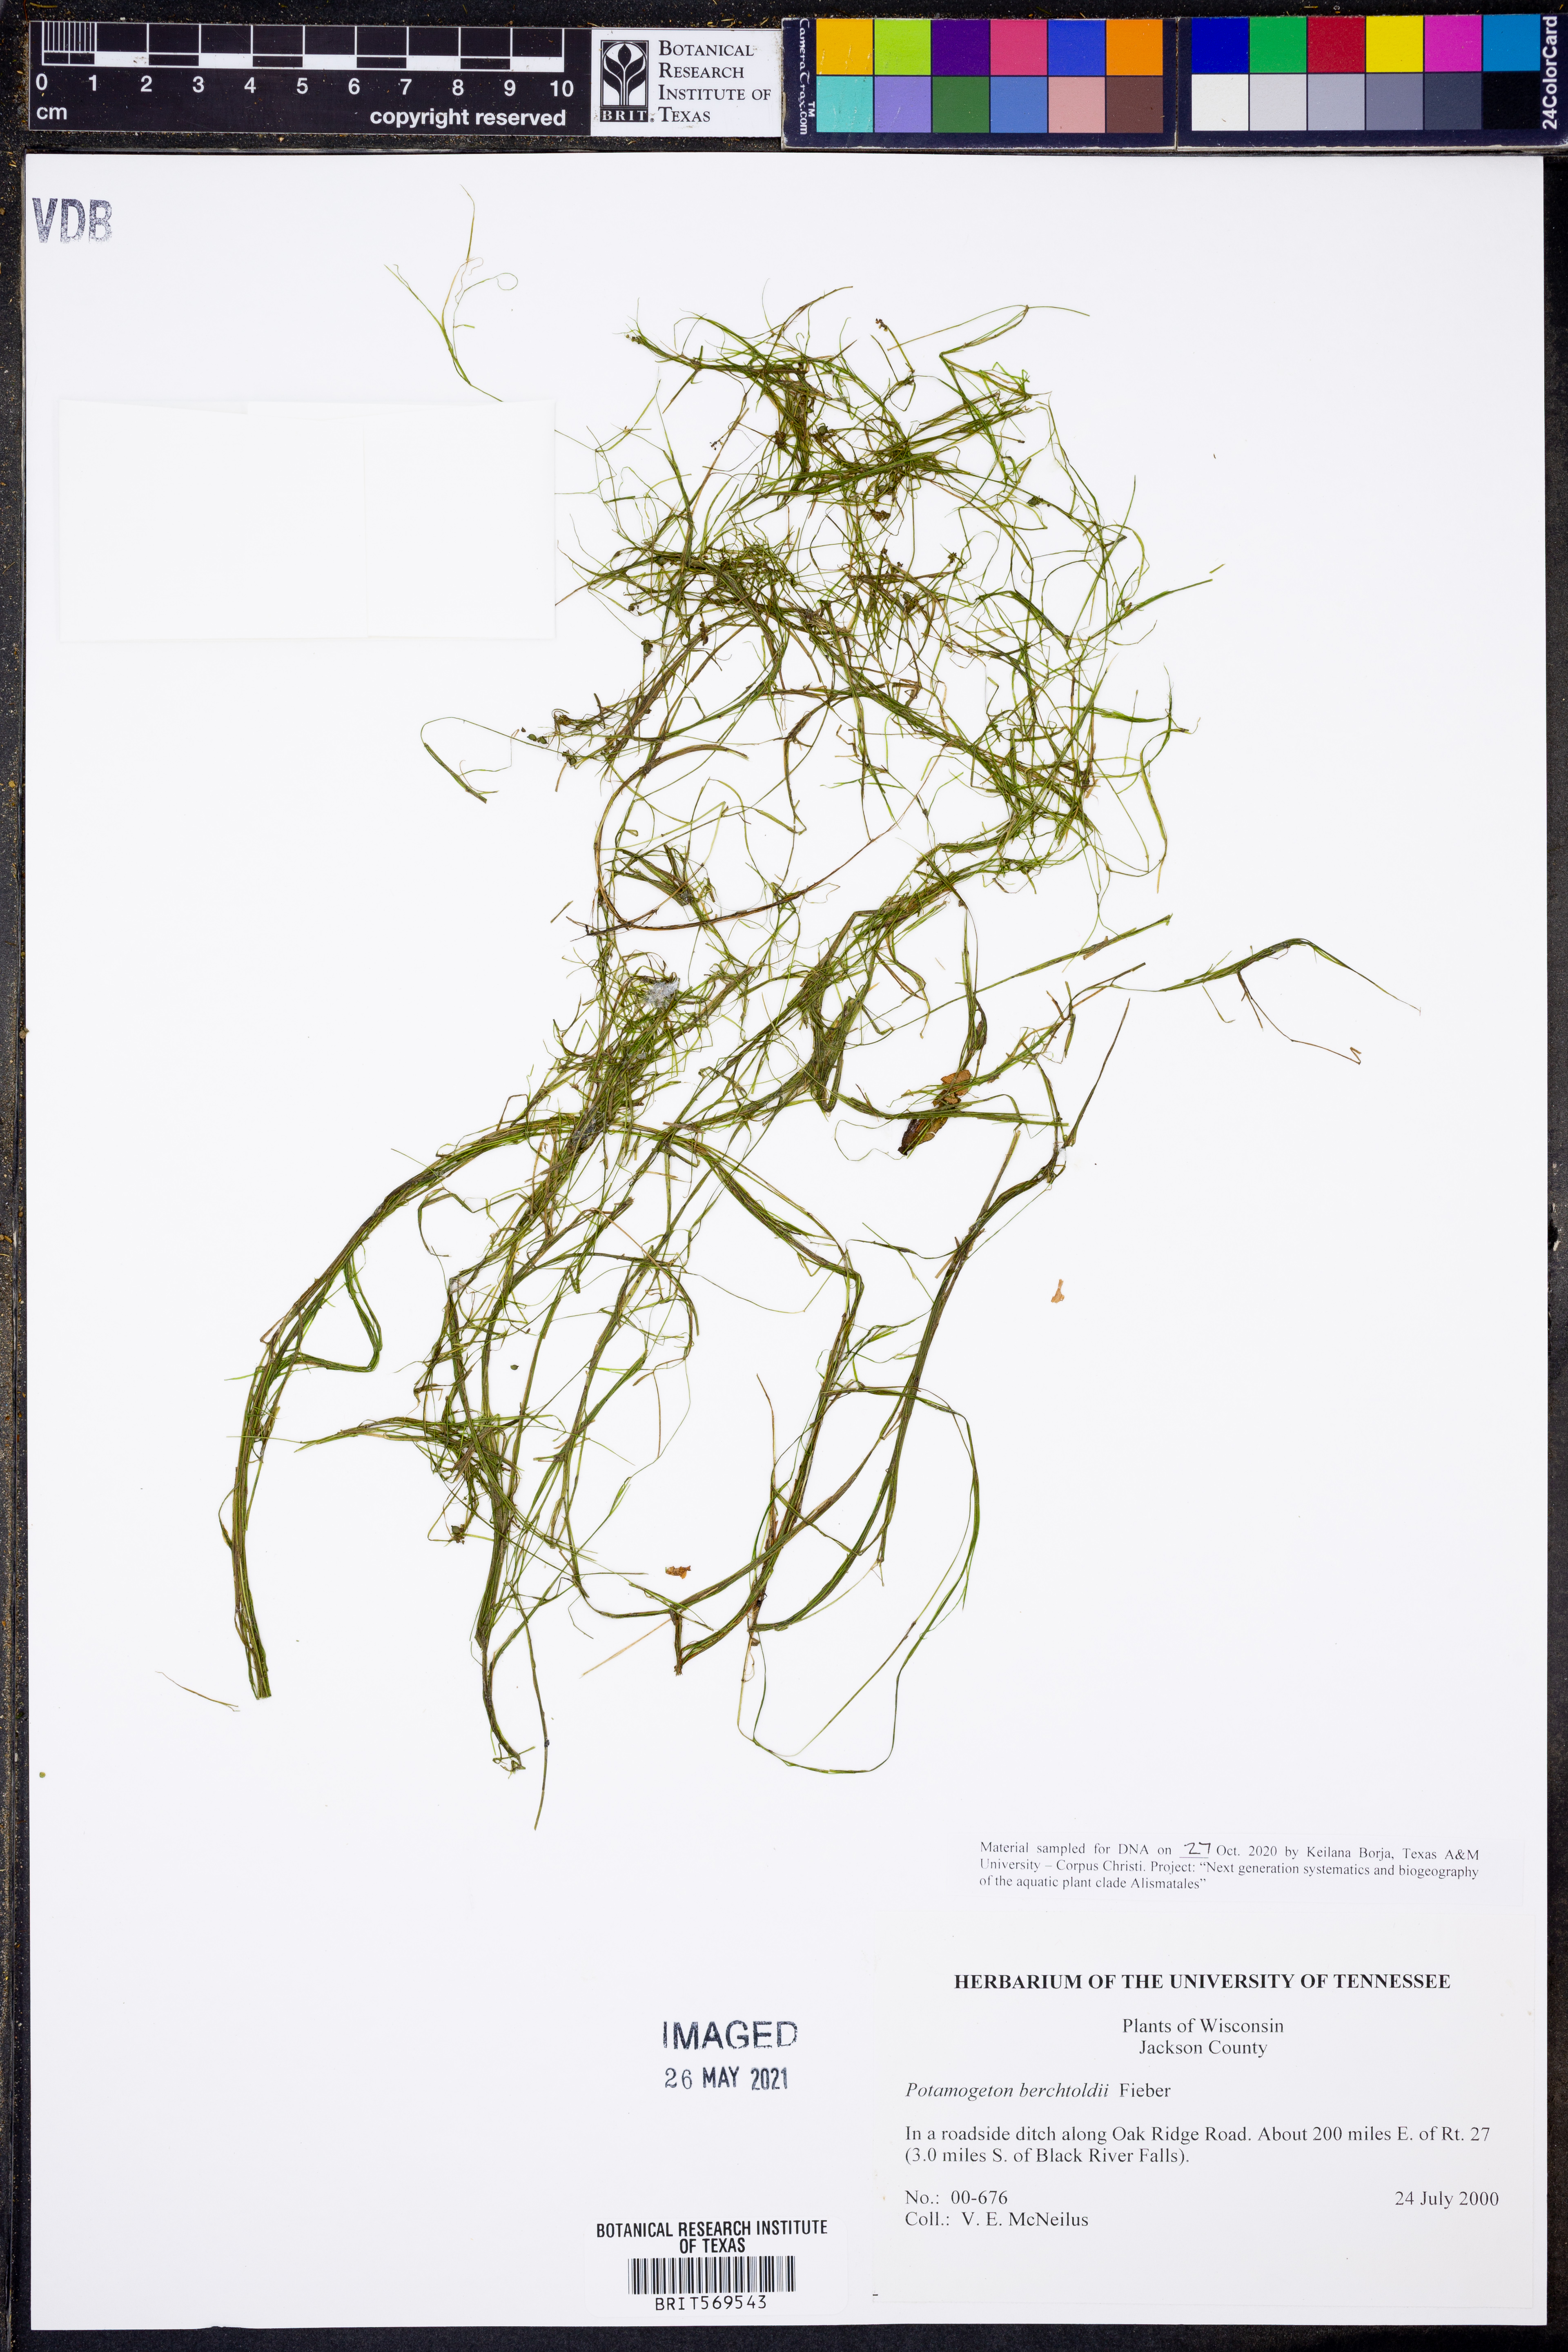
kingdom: Plantae
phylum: Tracheophyta
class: Liliopsida
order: Alismatales
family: Potamogetonaceae
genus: Potamogeton
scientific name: Potamogeton berchtoldii
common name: Small pondweed
